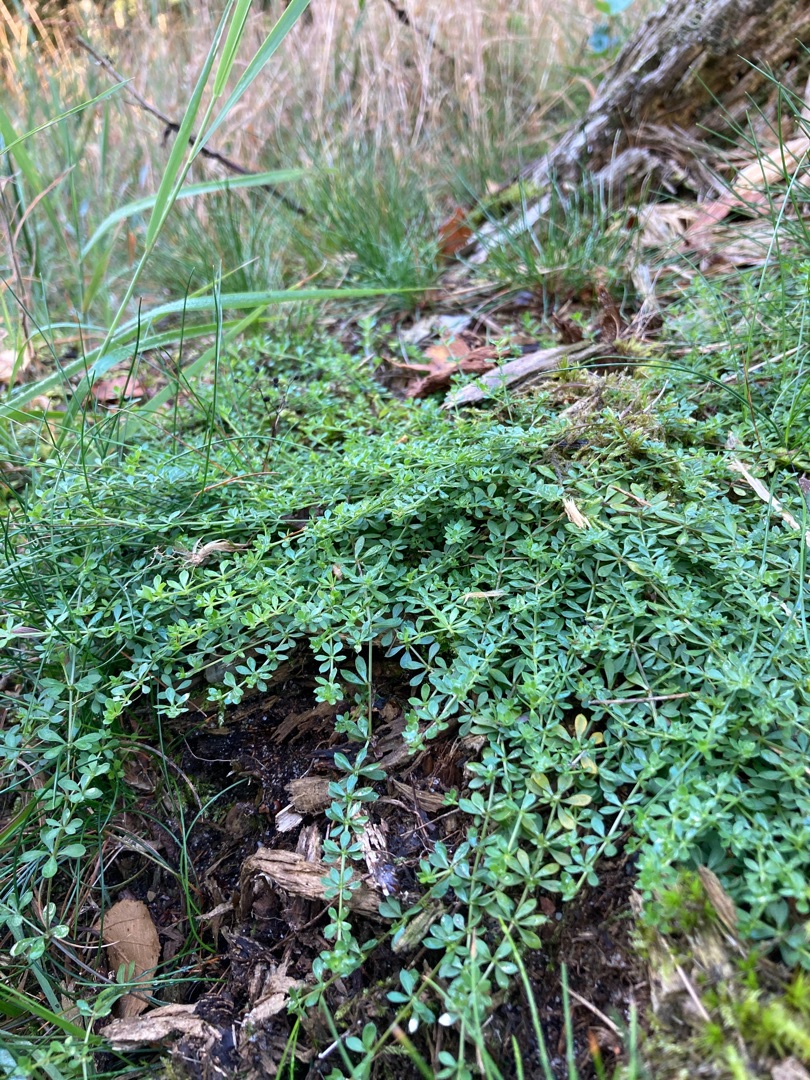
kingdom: Plantae
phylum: Tracheophyta
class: Magnoliopsida
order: Gentianales
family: Rubiaceae
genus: Galium
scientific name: Galium saxatile
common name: Lyng-snerre
